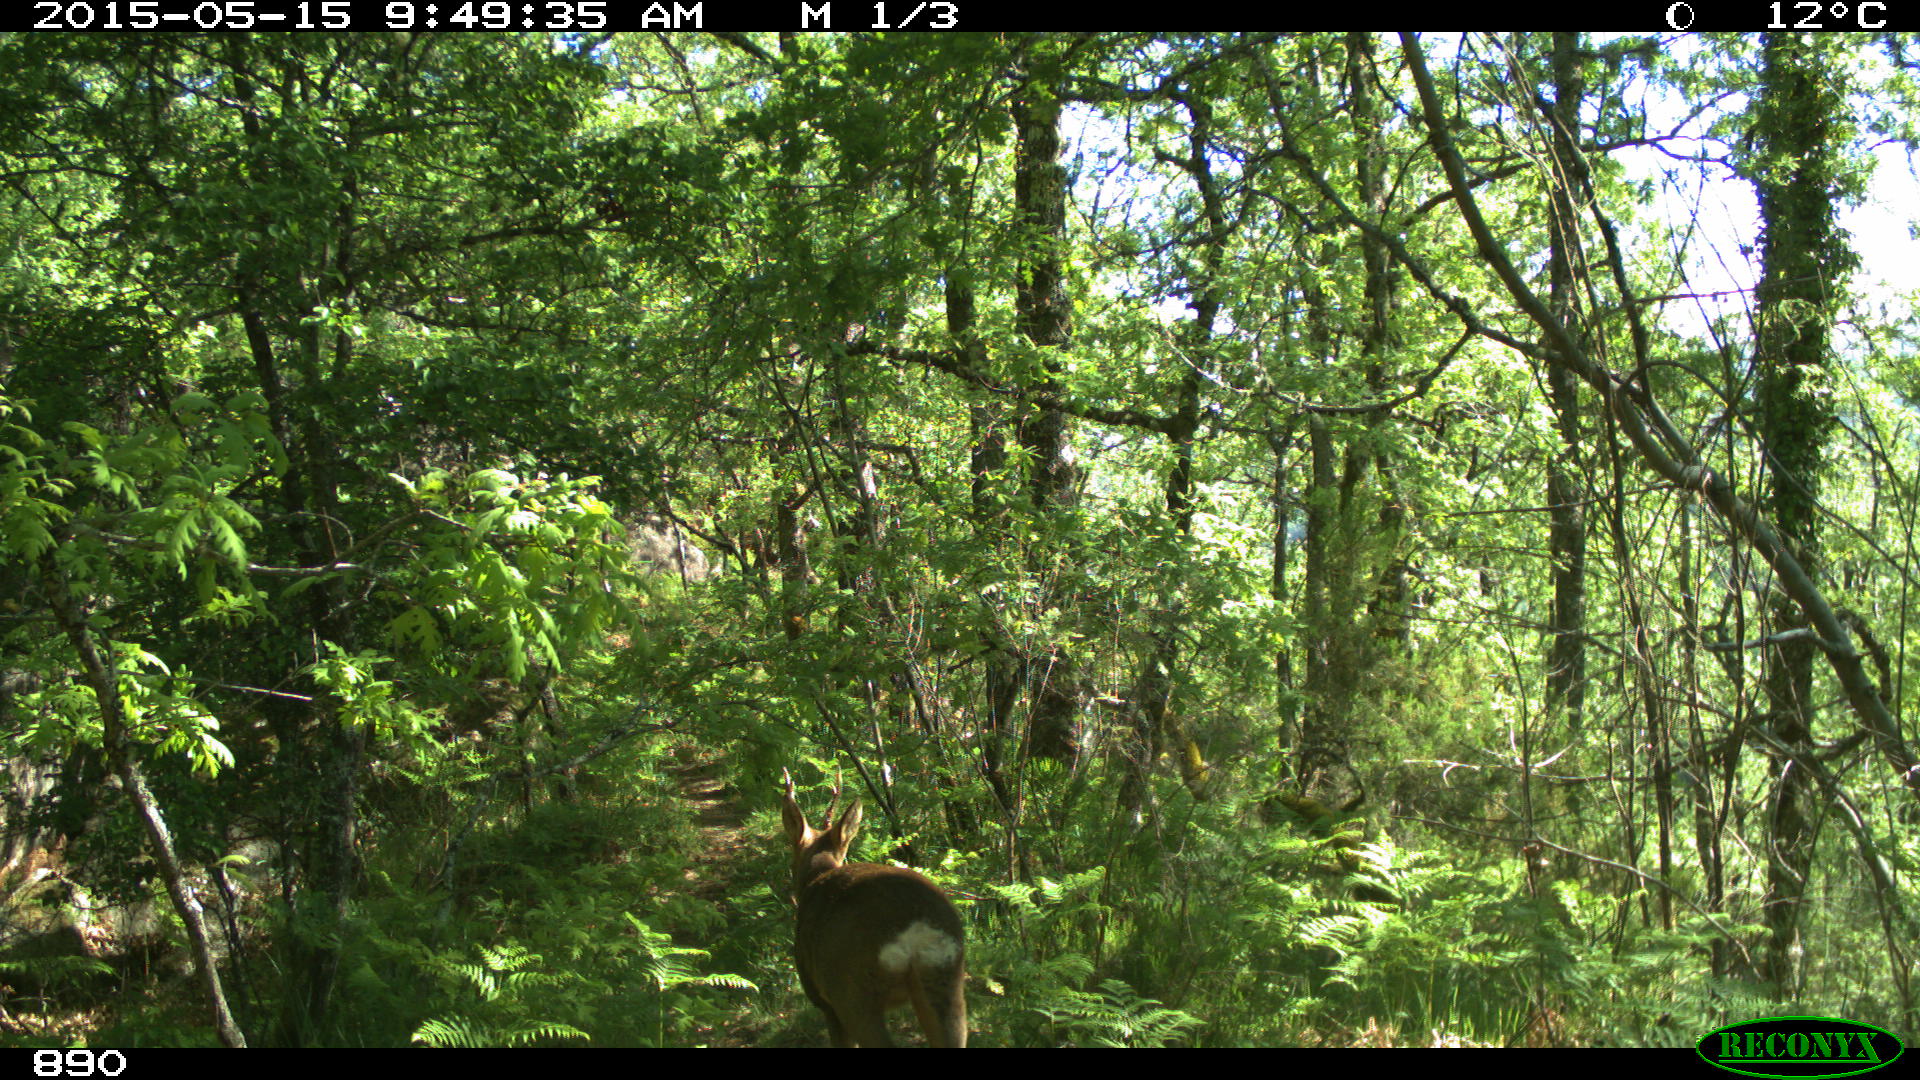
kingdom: Animalia
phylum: Chordata
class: Mammalia
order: Artiodactyla
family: Cervidae
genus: Capreolus
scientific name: Capreolus capreolus
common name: Western roe deer
